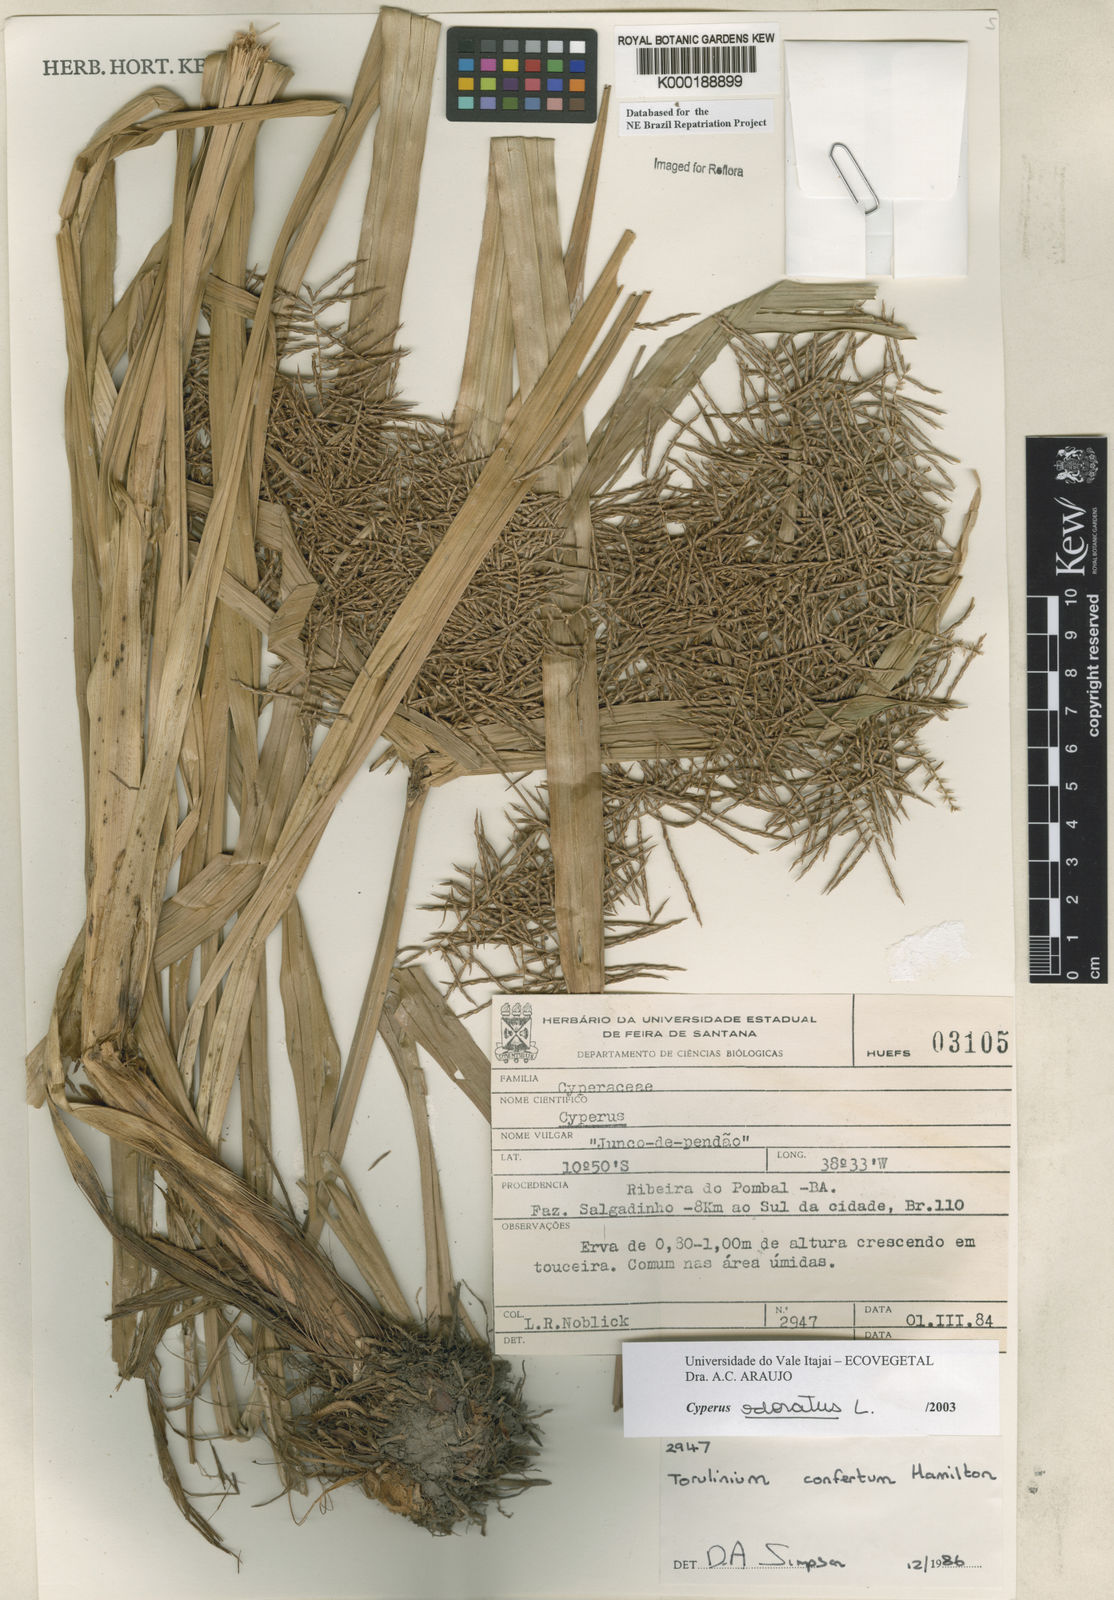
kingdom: Plantae
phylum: Tracheophyta
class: Liliopsida
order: Poales
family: Cyperaceae
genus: Cyperus
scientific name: Cyperus odoratus
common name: Fragrant flatsedge
